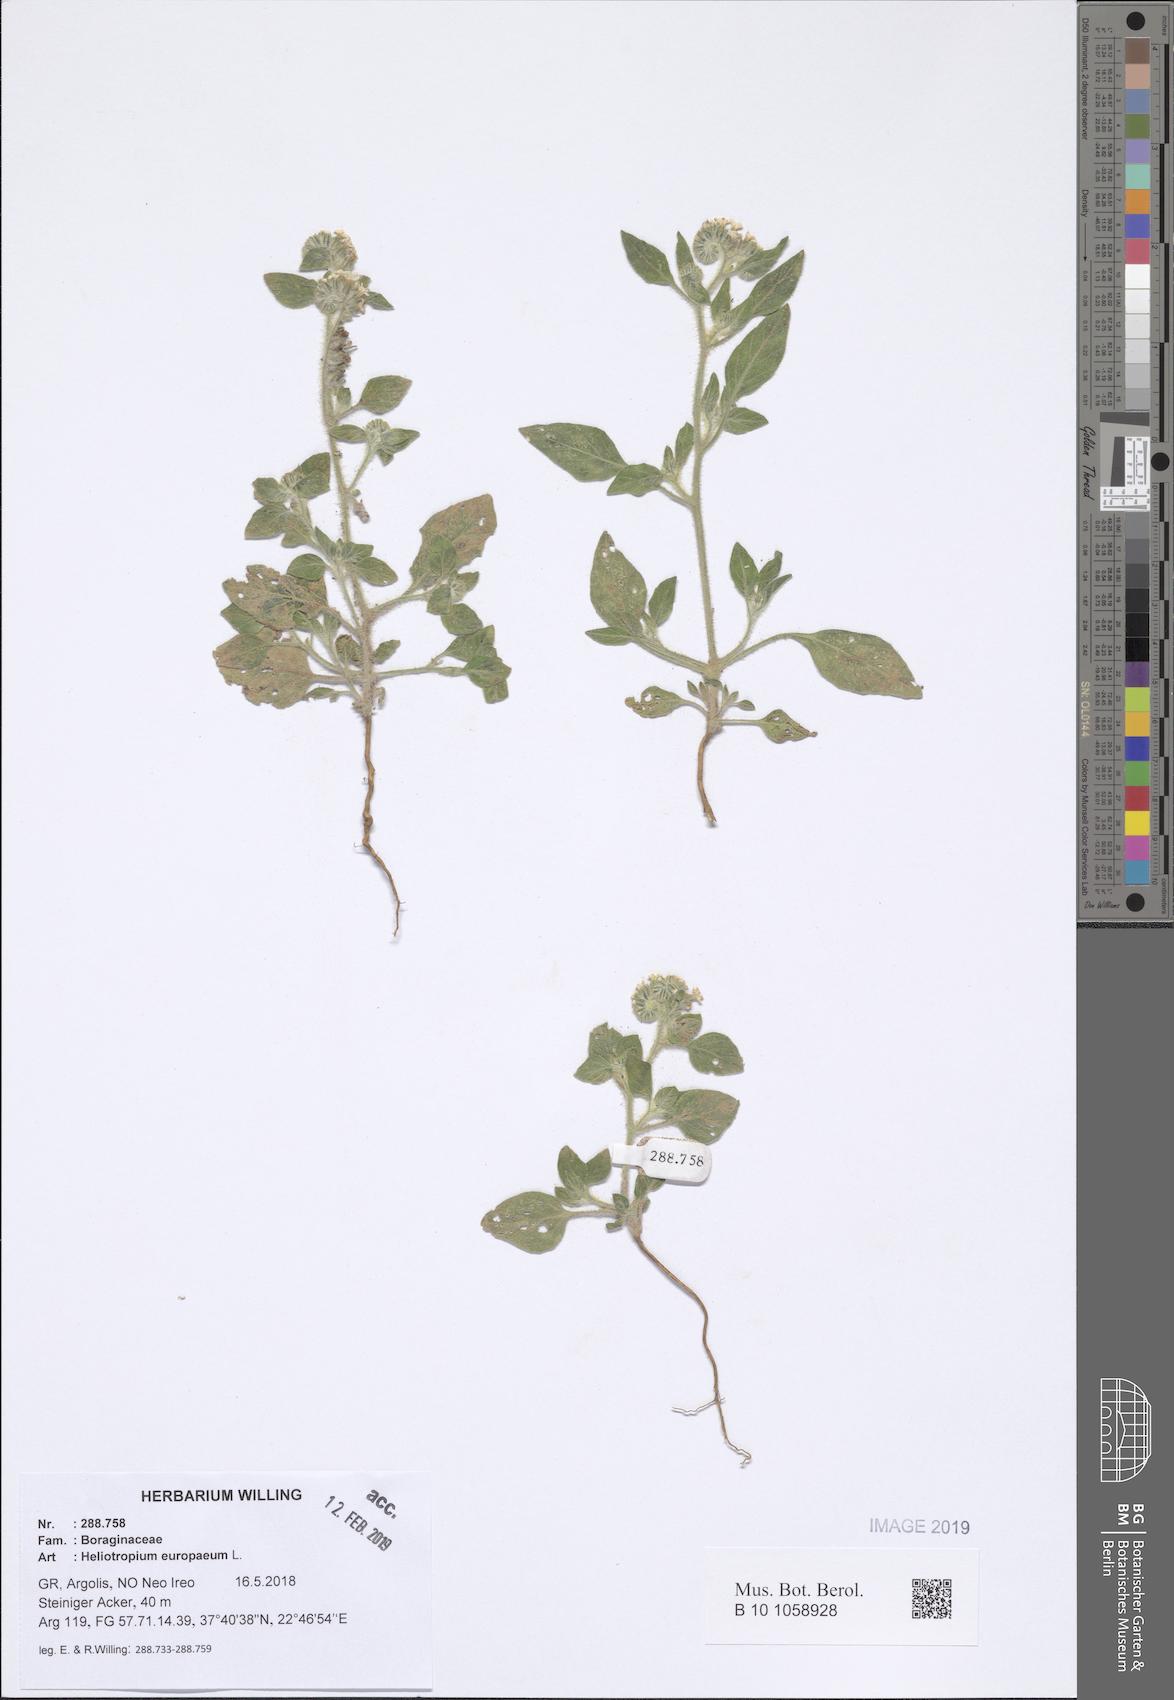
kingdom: Plantae
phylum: Tracheophyta
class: Magnoliopsida
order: Boraginales
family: Heliotropiaceae
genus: Heliotropium
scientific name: Heliotropium europaeum
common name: European heliotrope
